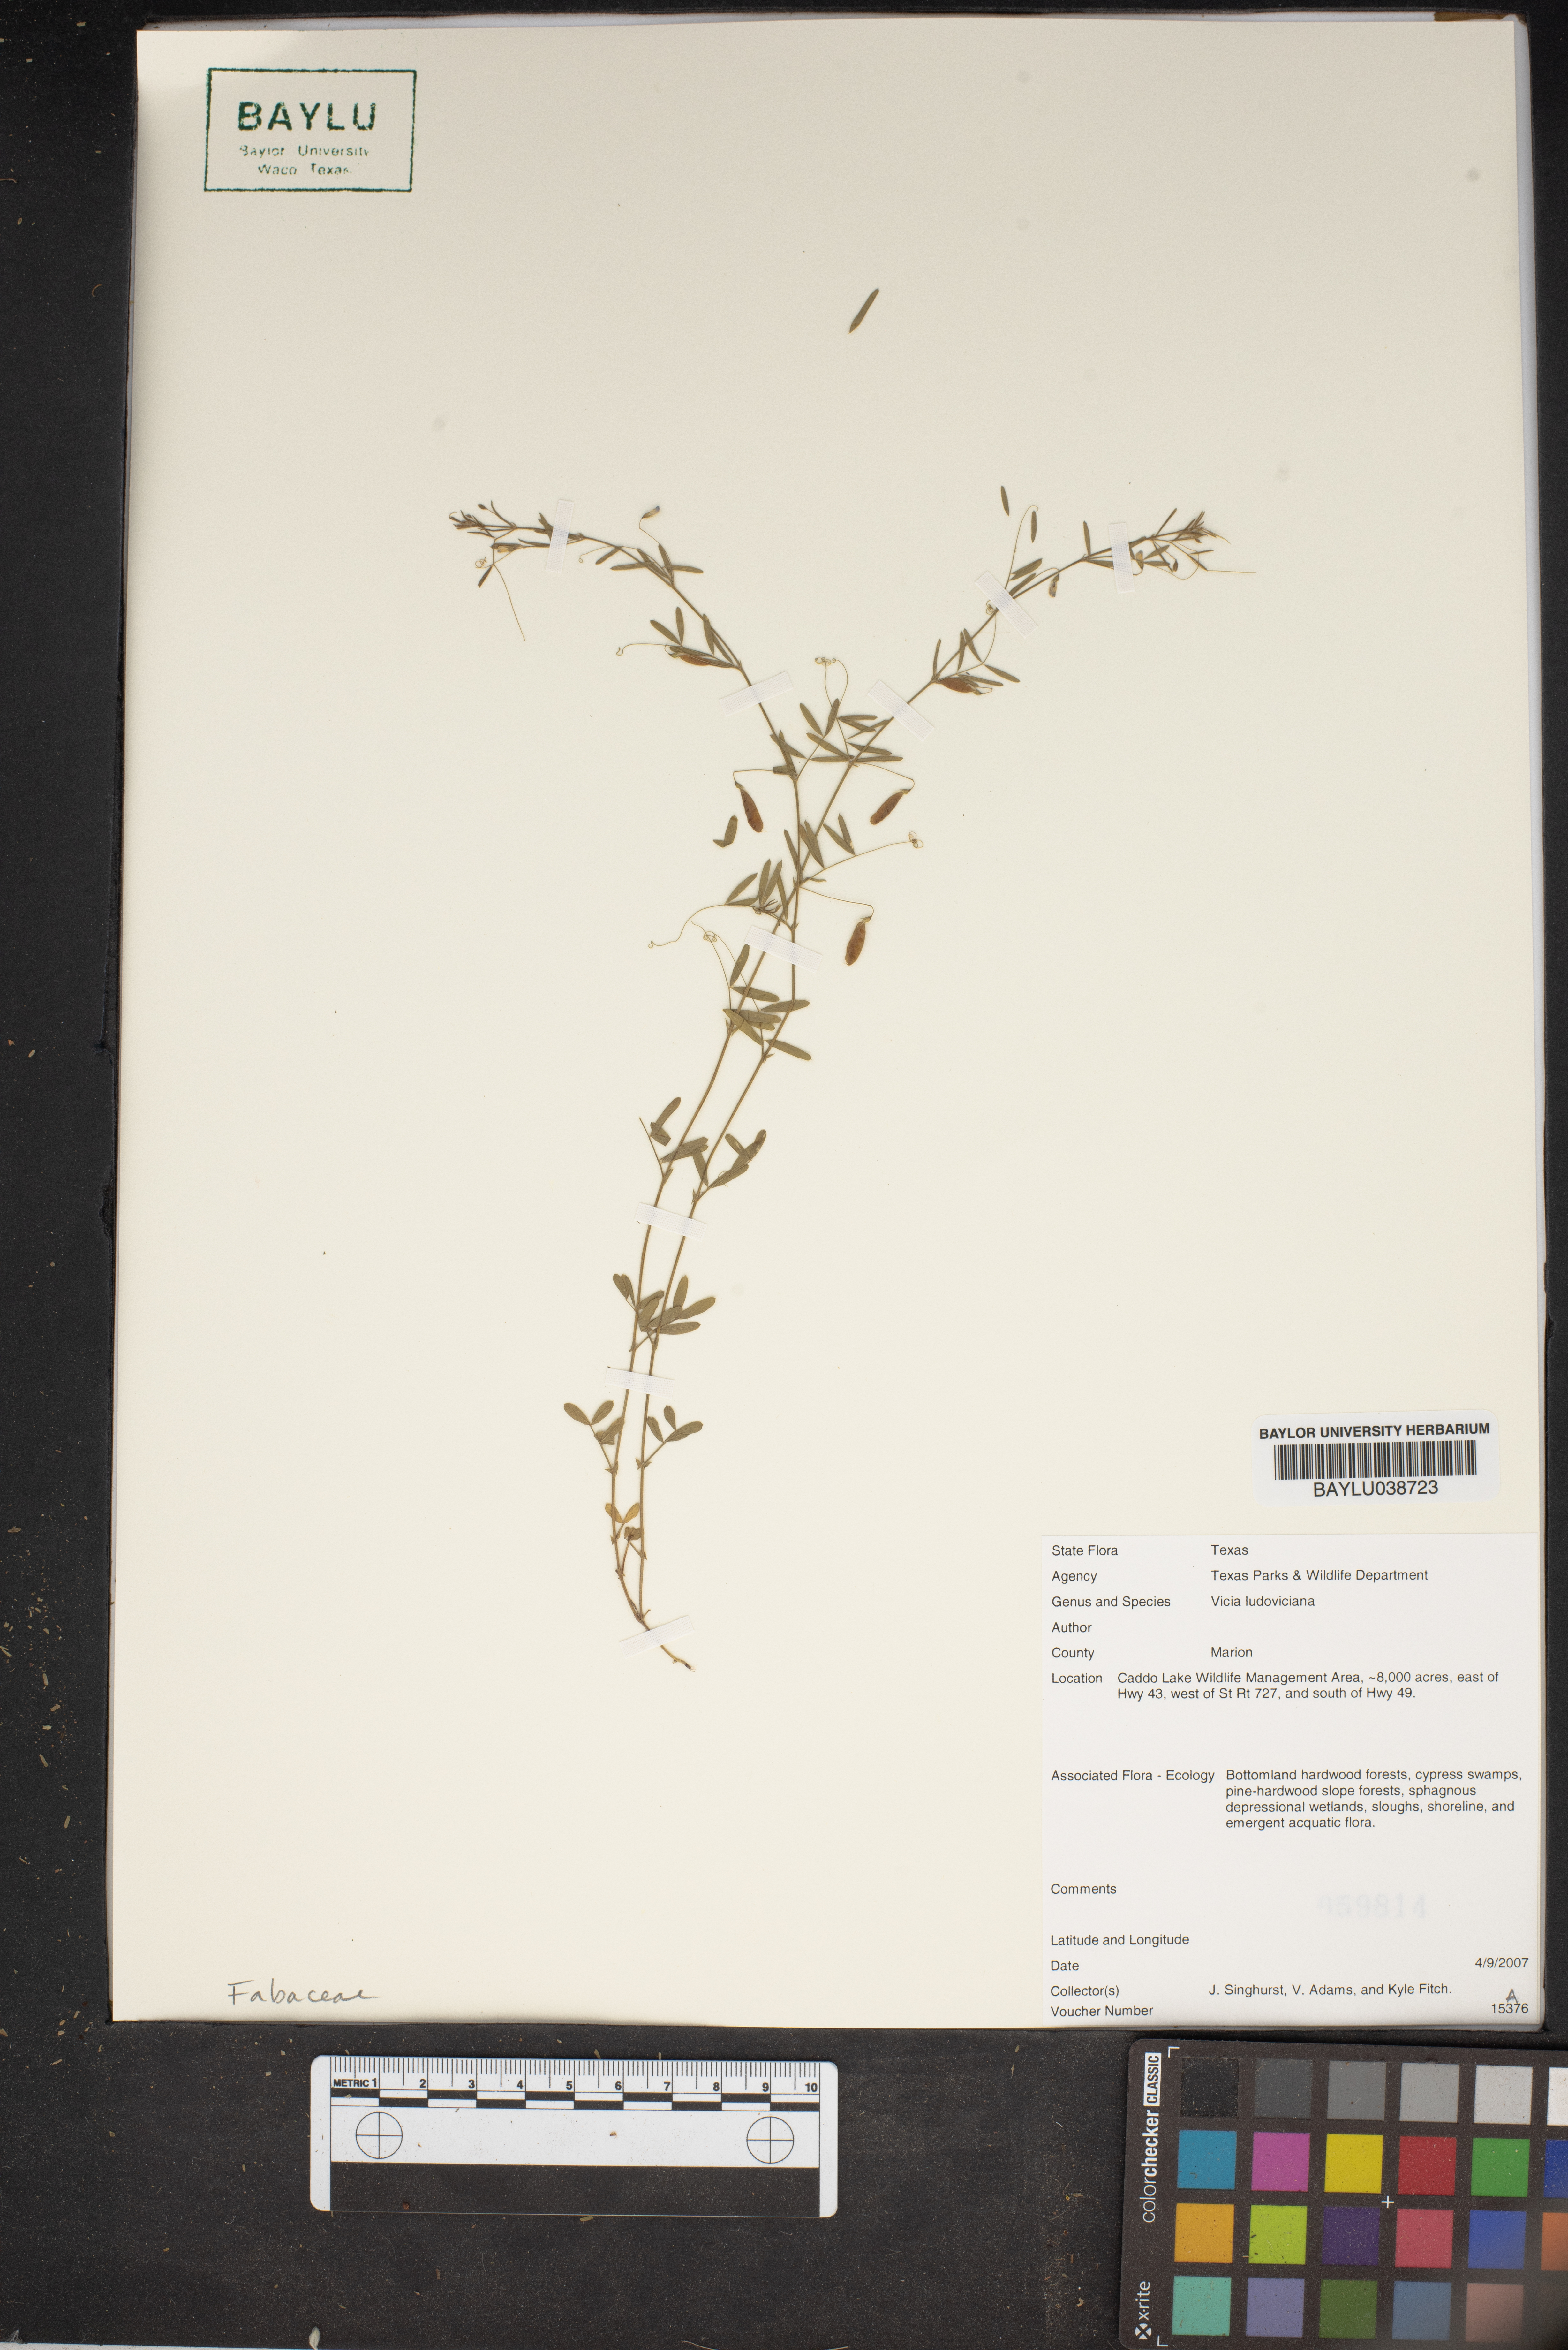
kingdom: Plantae
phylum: Tracheophyta
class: Magnoliopsida
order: Fabales
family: Fabaceae
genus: Vicia
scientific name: Vicia ludoviciana
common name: Louisiana vetch
